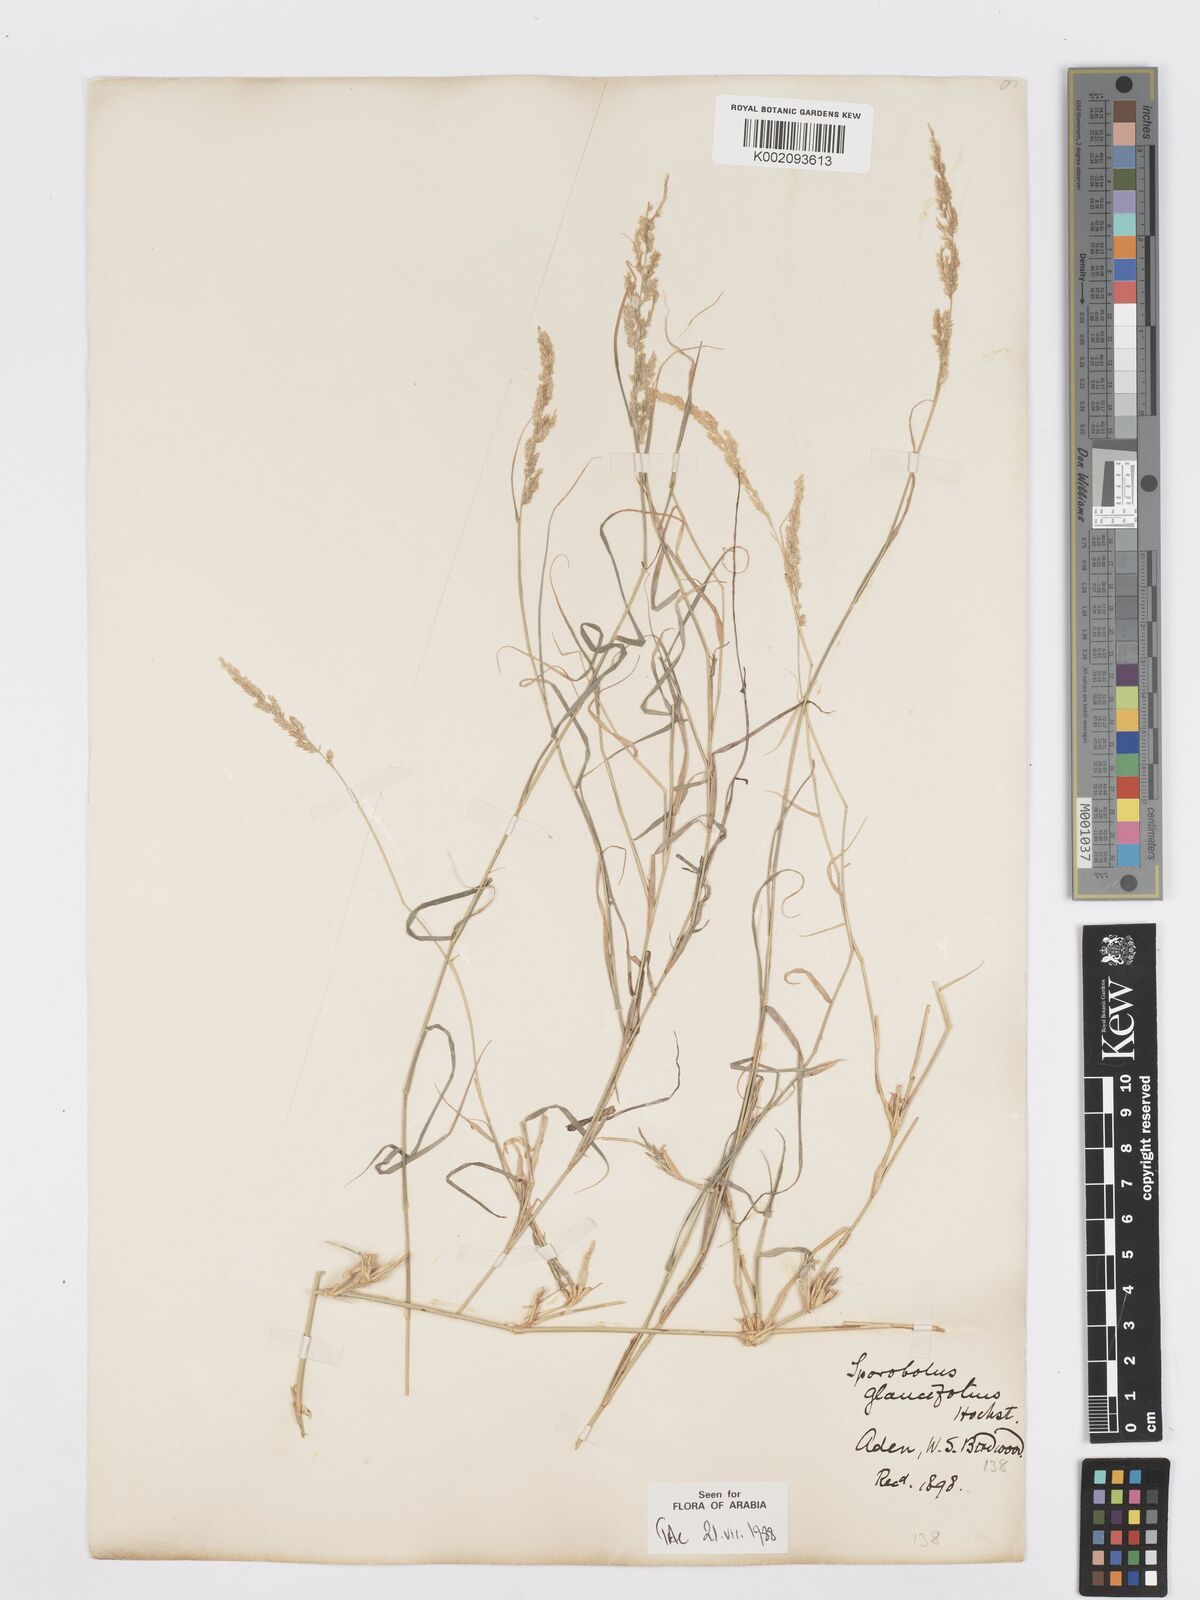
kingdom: Plantae
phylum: Tracheophyta
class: Liliopsida
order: Poales
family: Poaceae
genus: Sporobolus
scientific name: Sporobolus helvolus
